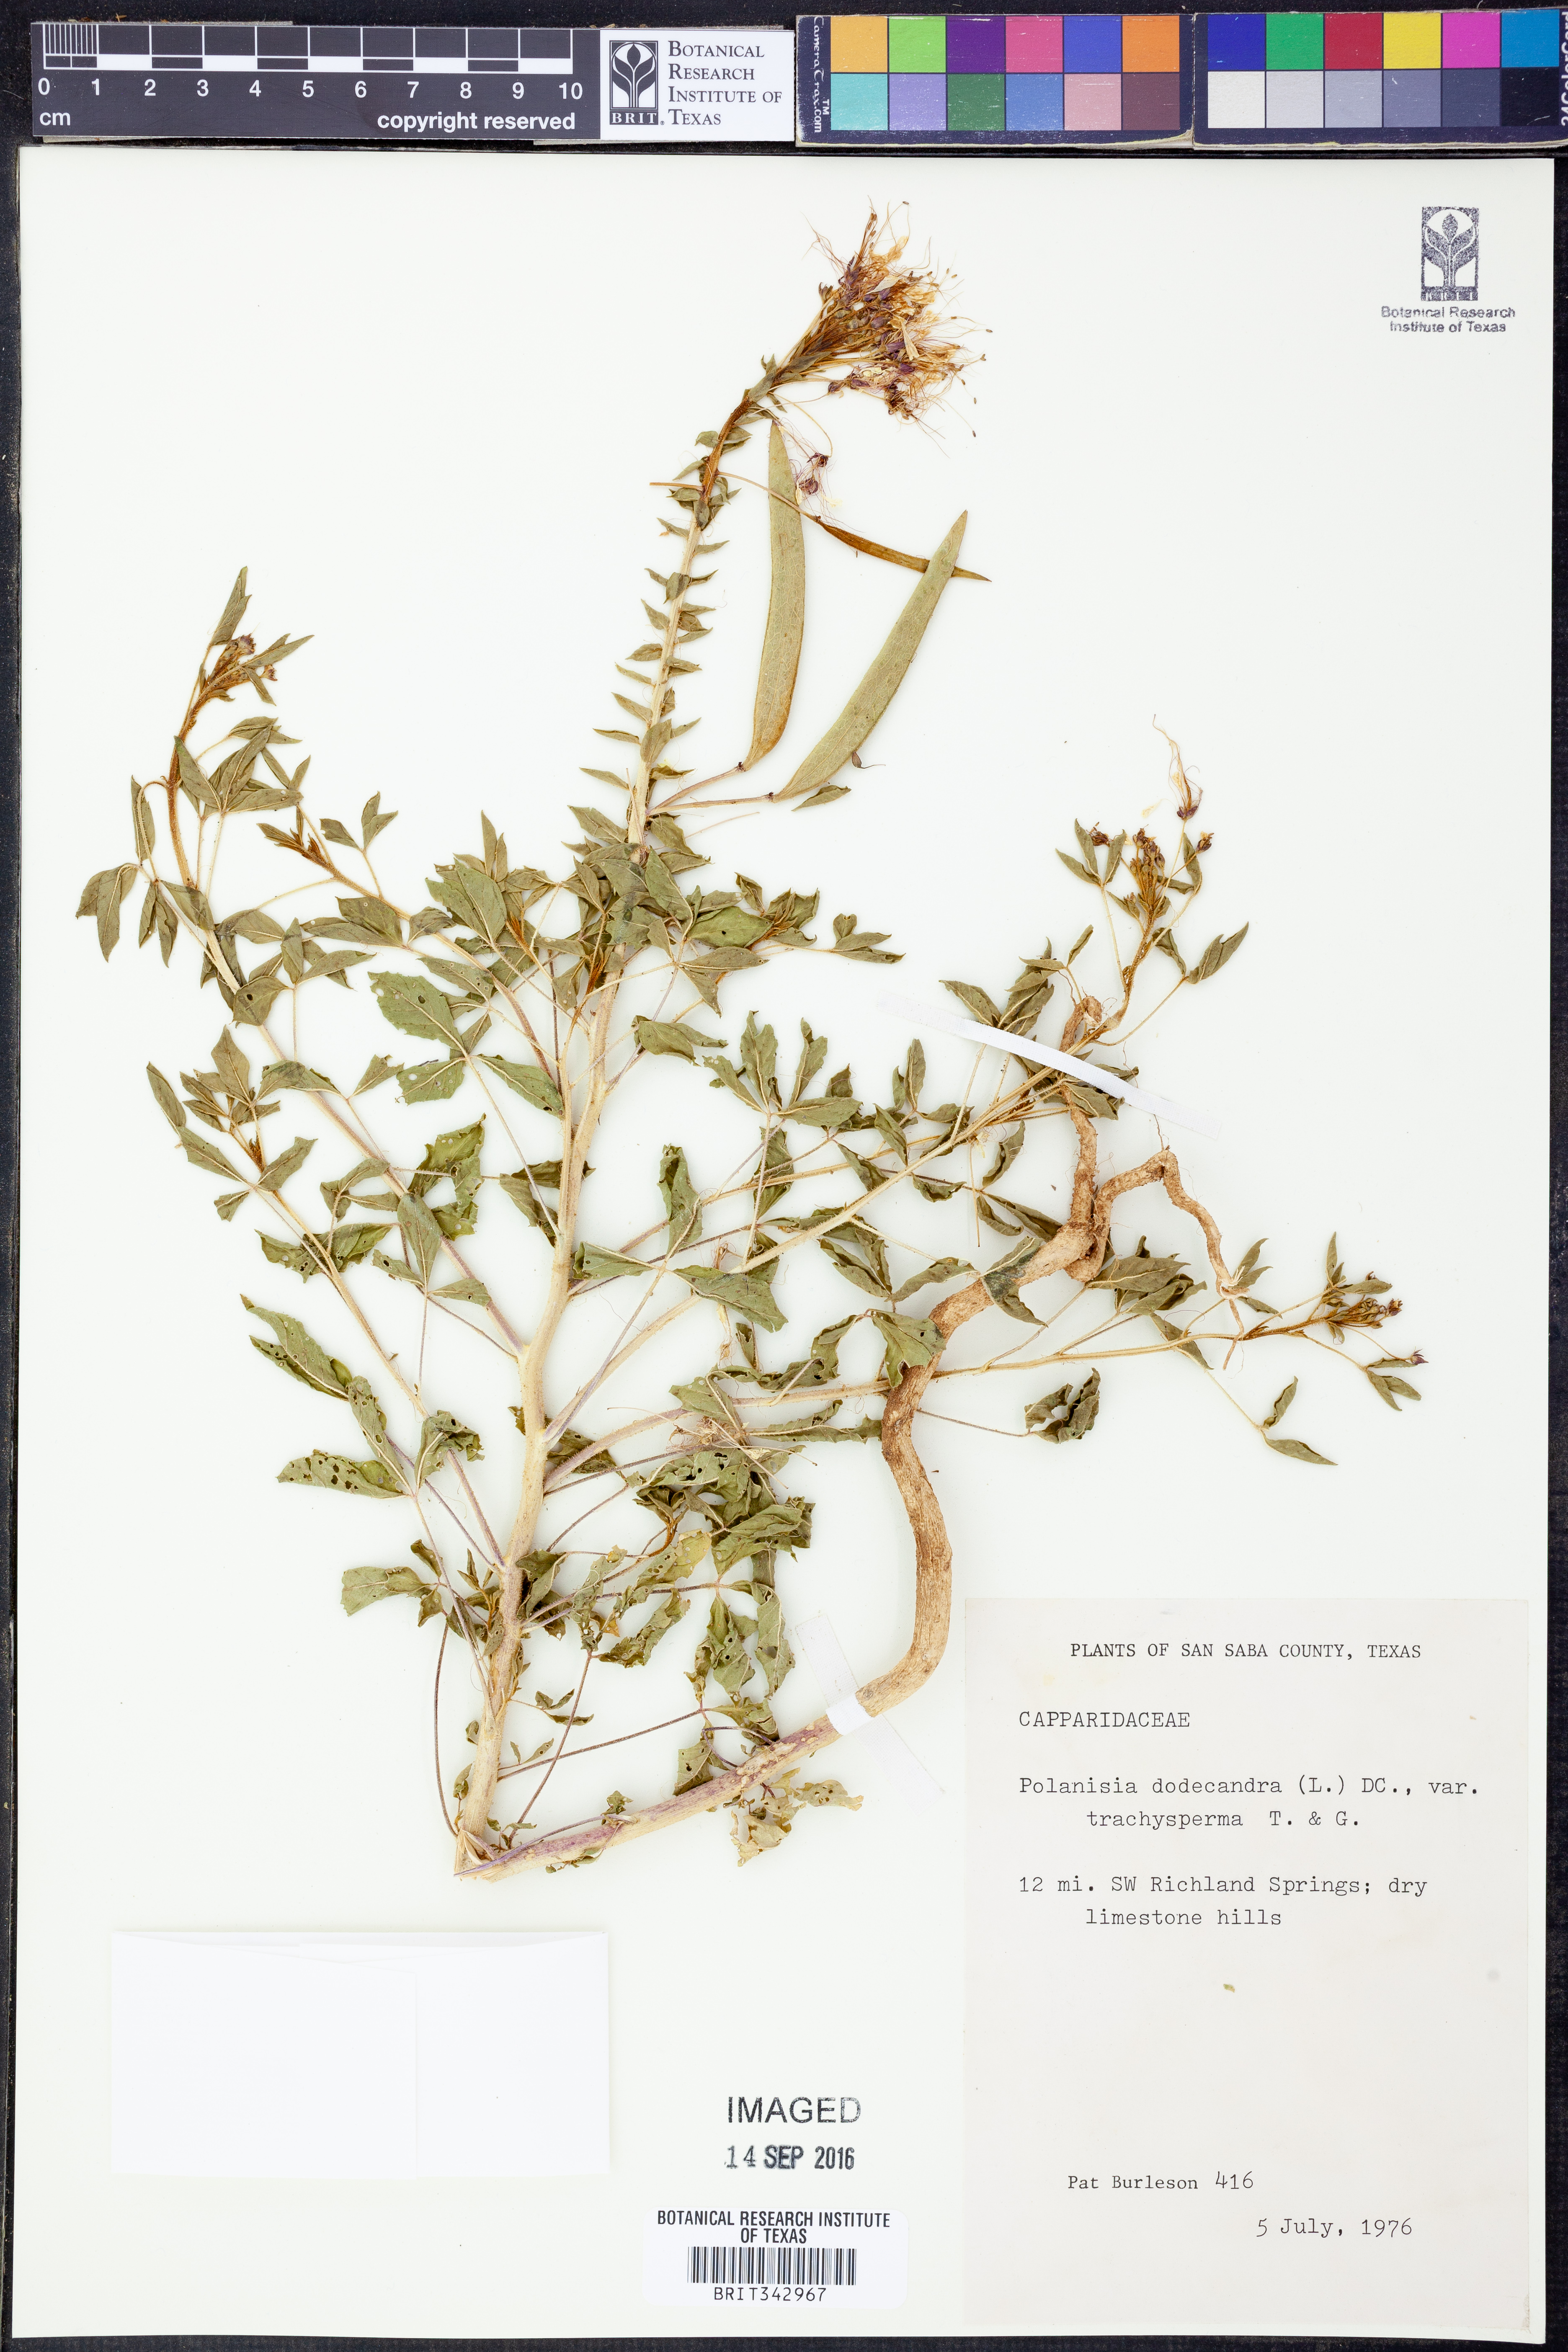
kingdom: Plantae
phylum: Tracheophyta
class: Magnoliopsida
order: Brassicales
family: Cleomaceae
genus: Polanisia
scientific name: Polanisia trachysperma
